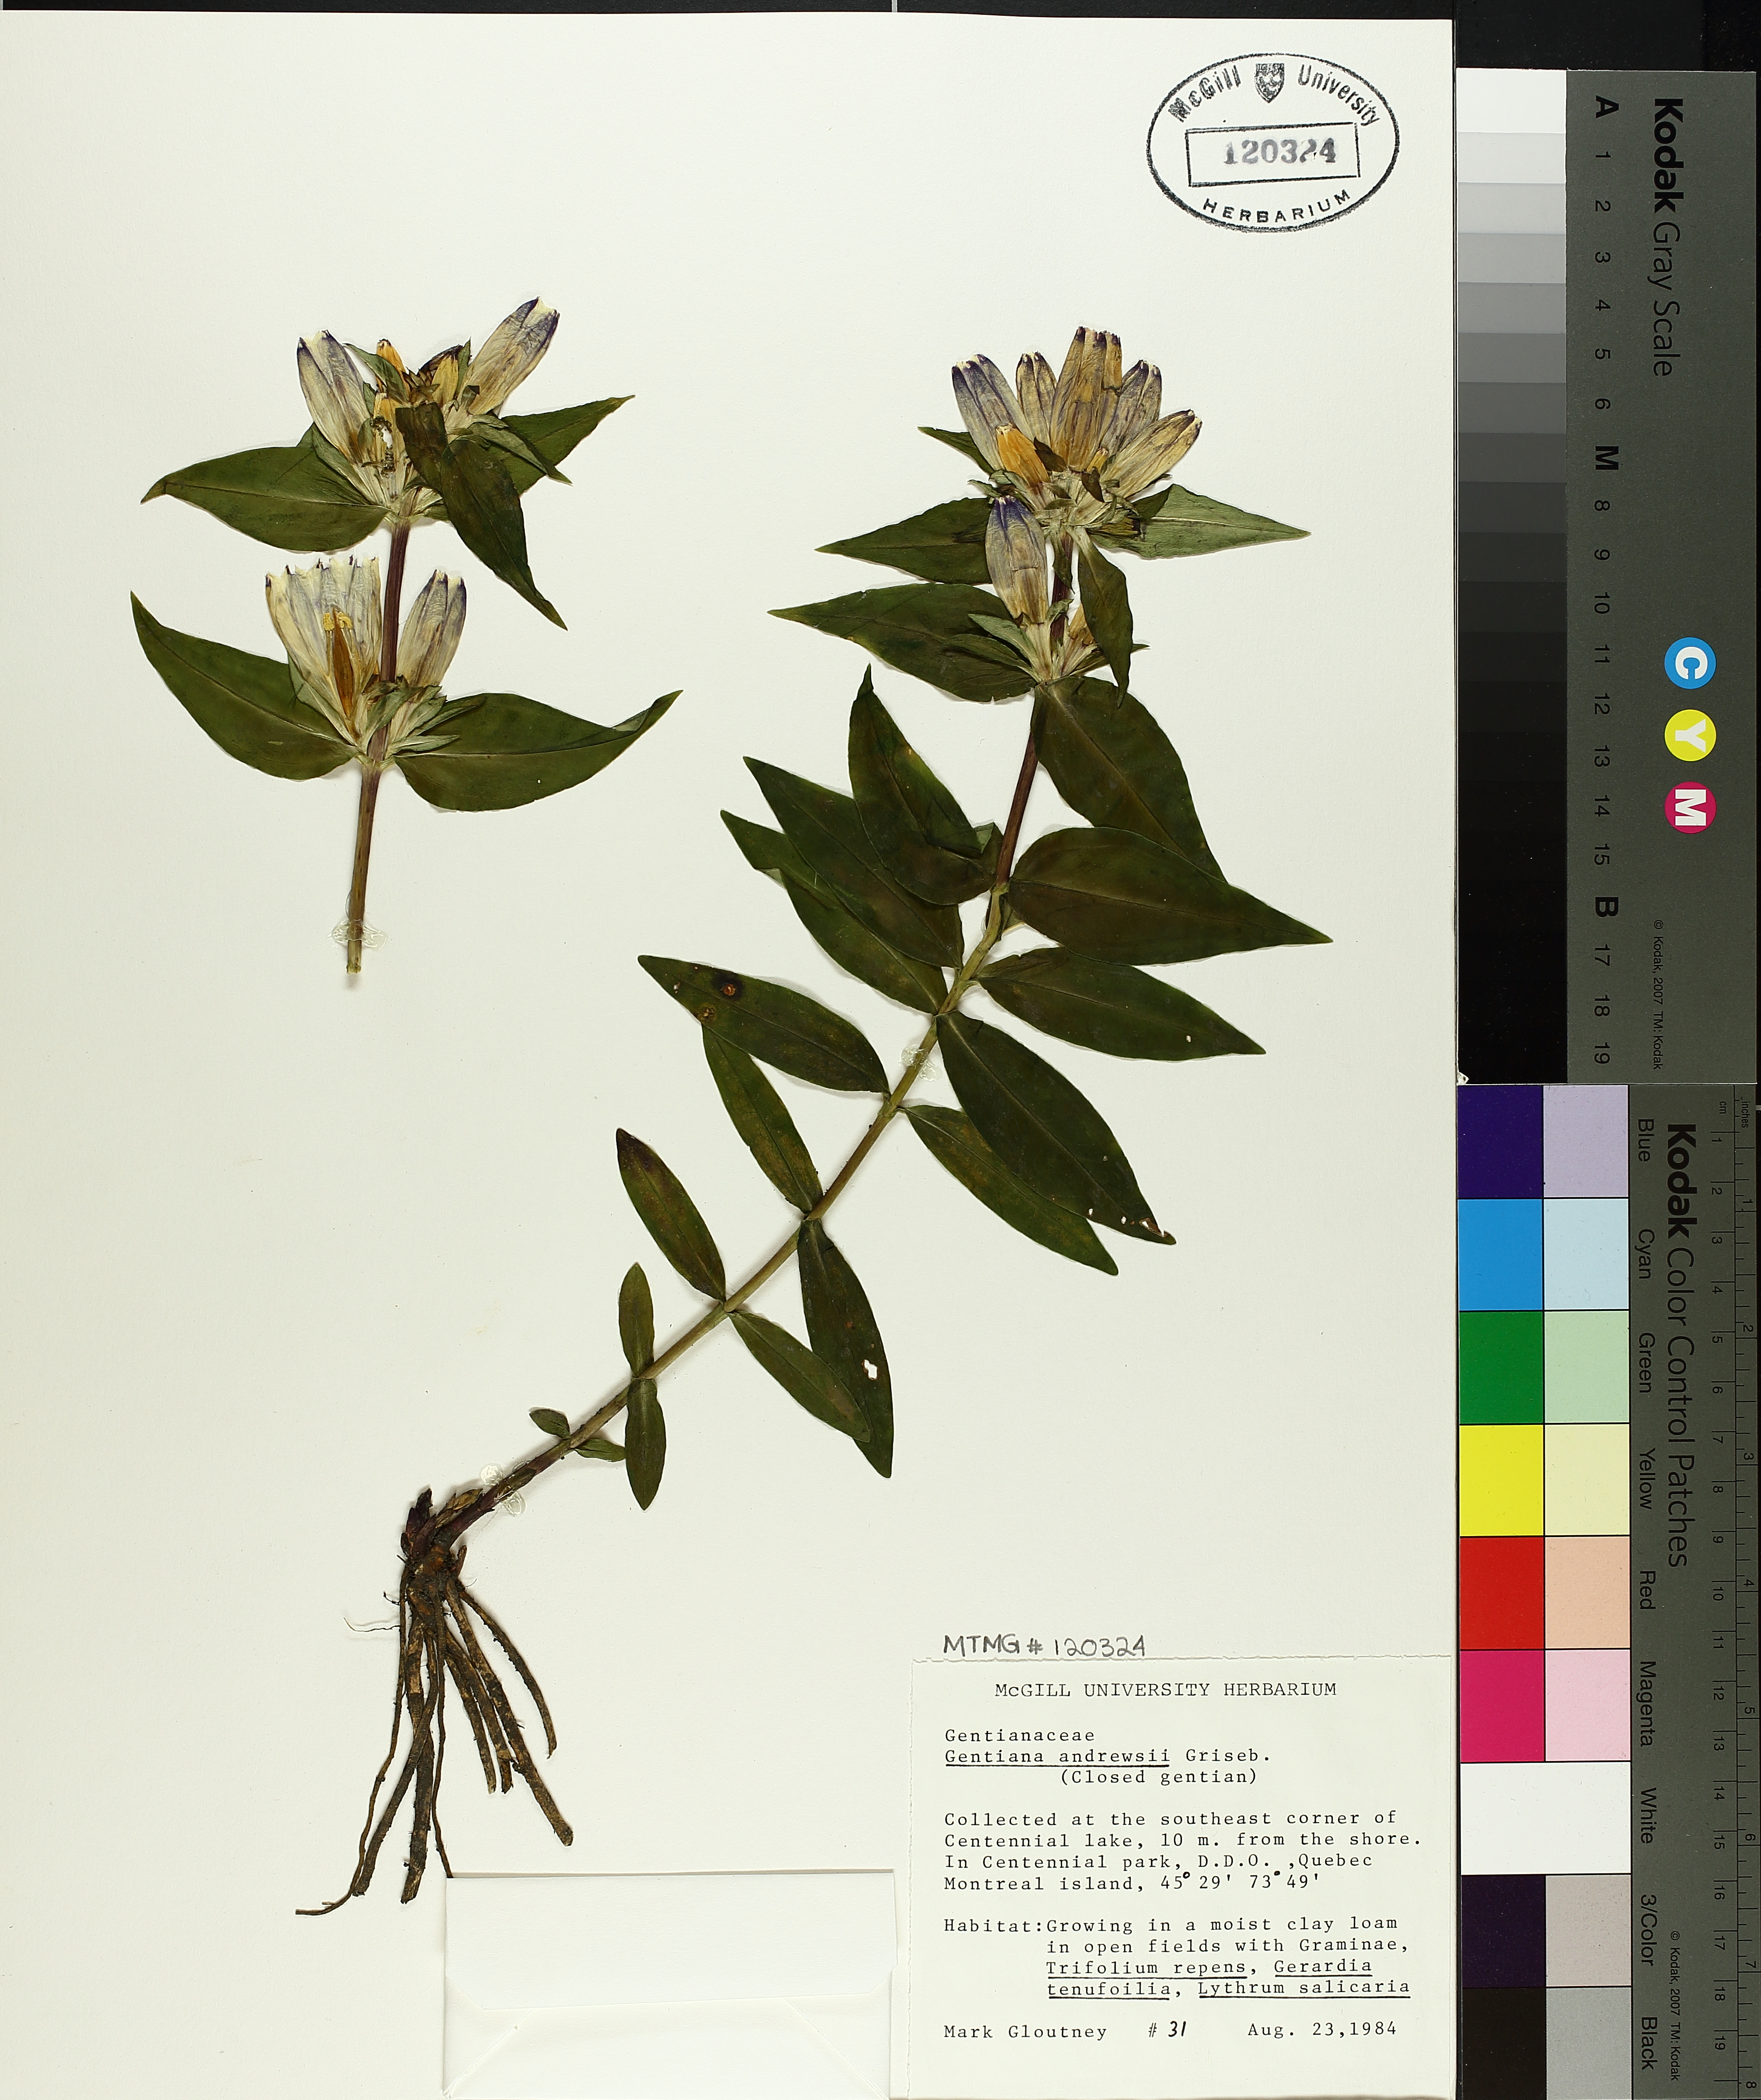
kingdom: Plantae
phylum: Tracheophyta
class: Magnoliopsida
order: Gentianales
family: Gentianaceae
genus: Gentiana
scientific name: Gentiana andrewsii
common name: Bottle gentian
